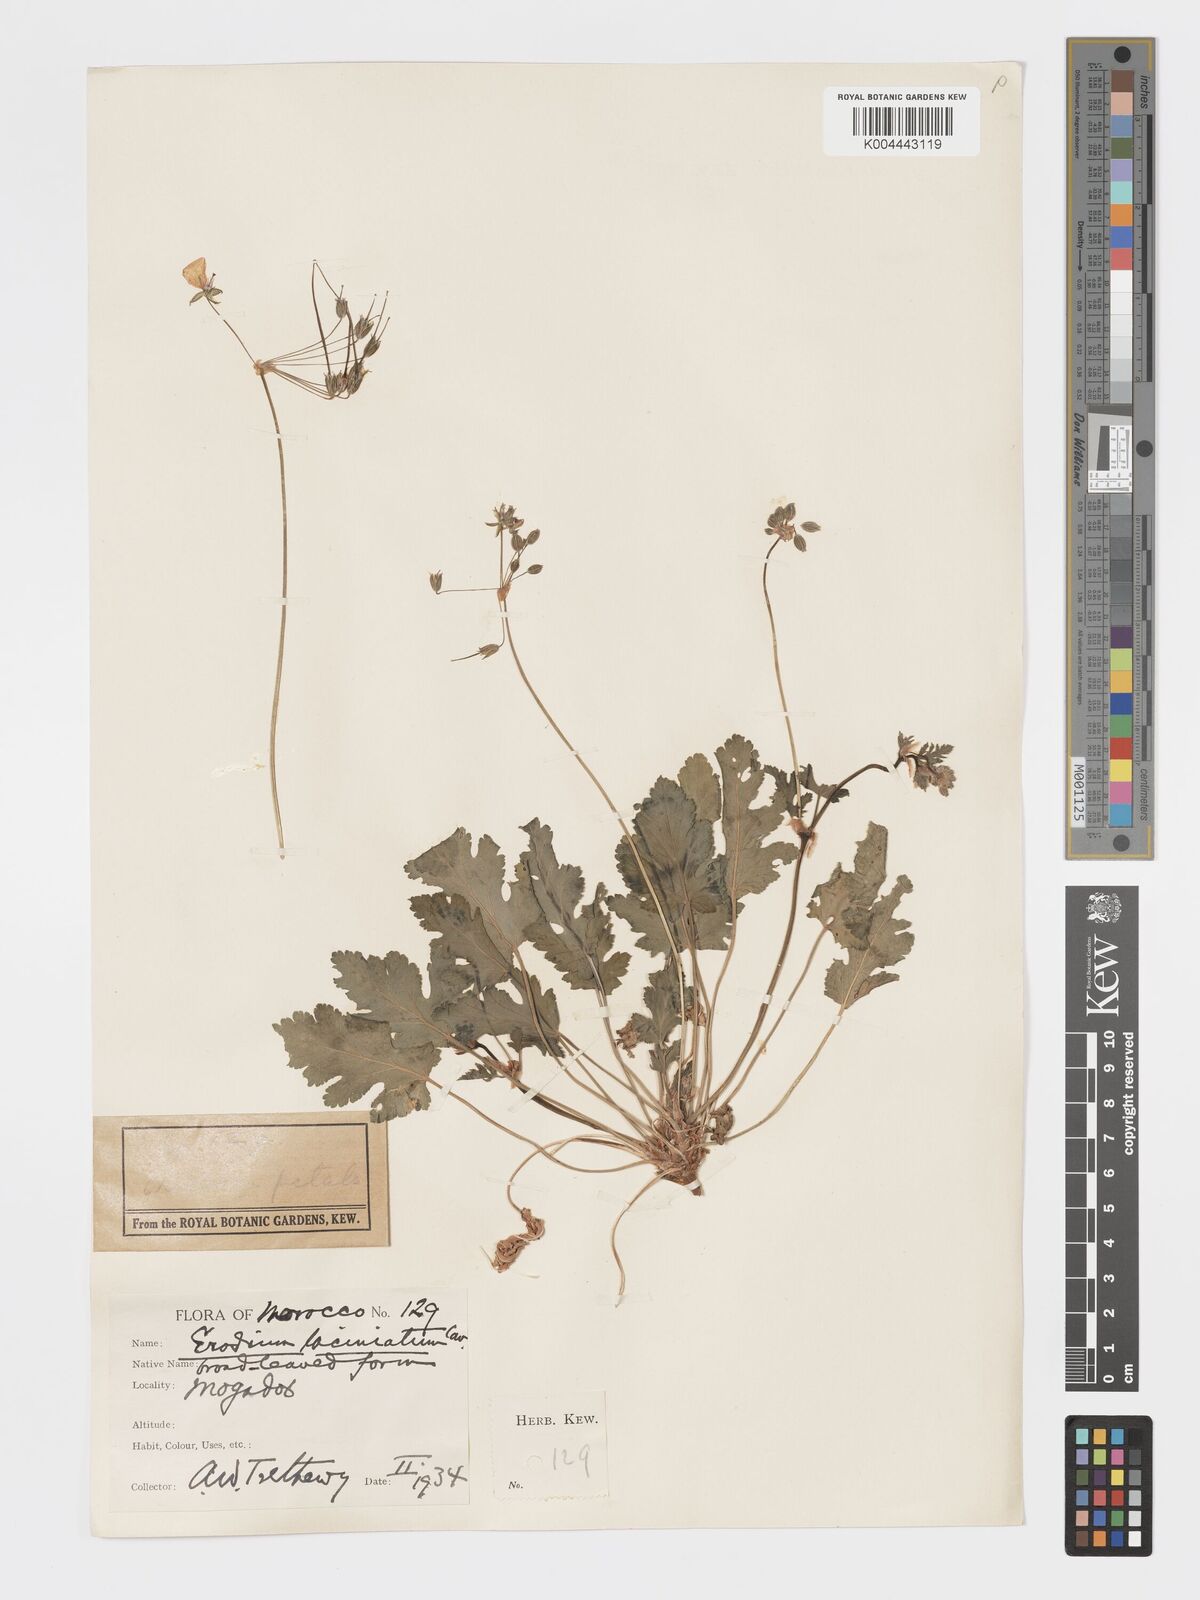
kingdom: Plantae
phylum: Tracheophyta
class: Magnoliopsida
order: Geraniales
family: Geraniaceae
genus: Erodium
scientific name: Erodium hesperium
